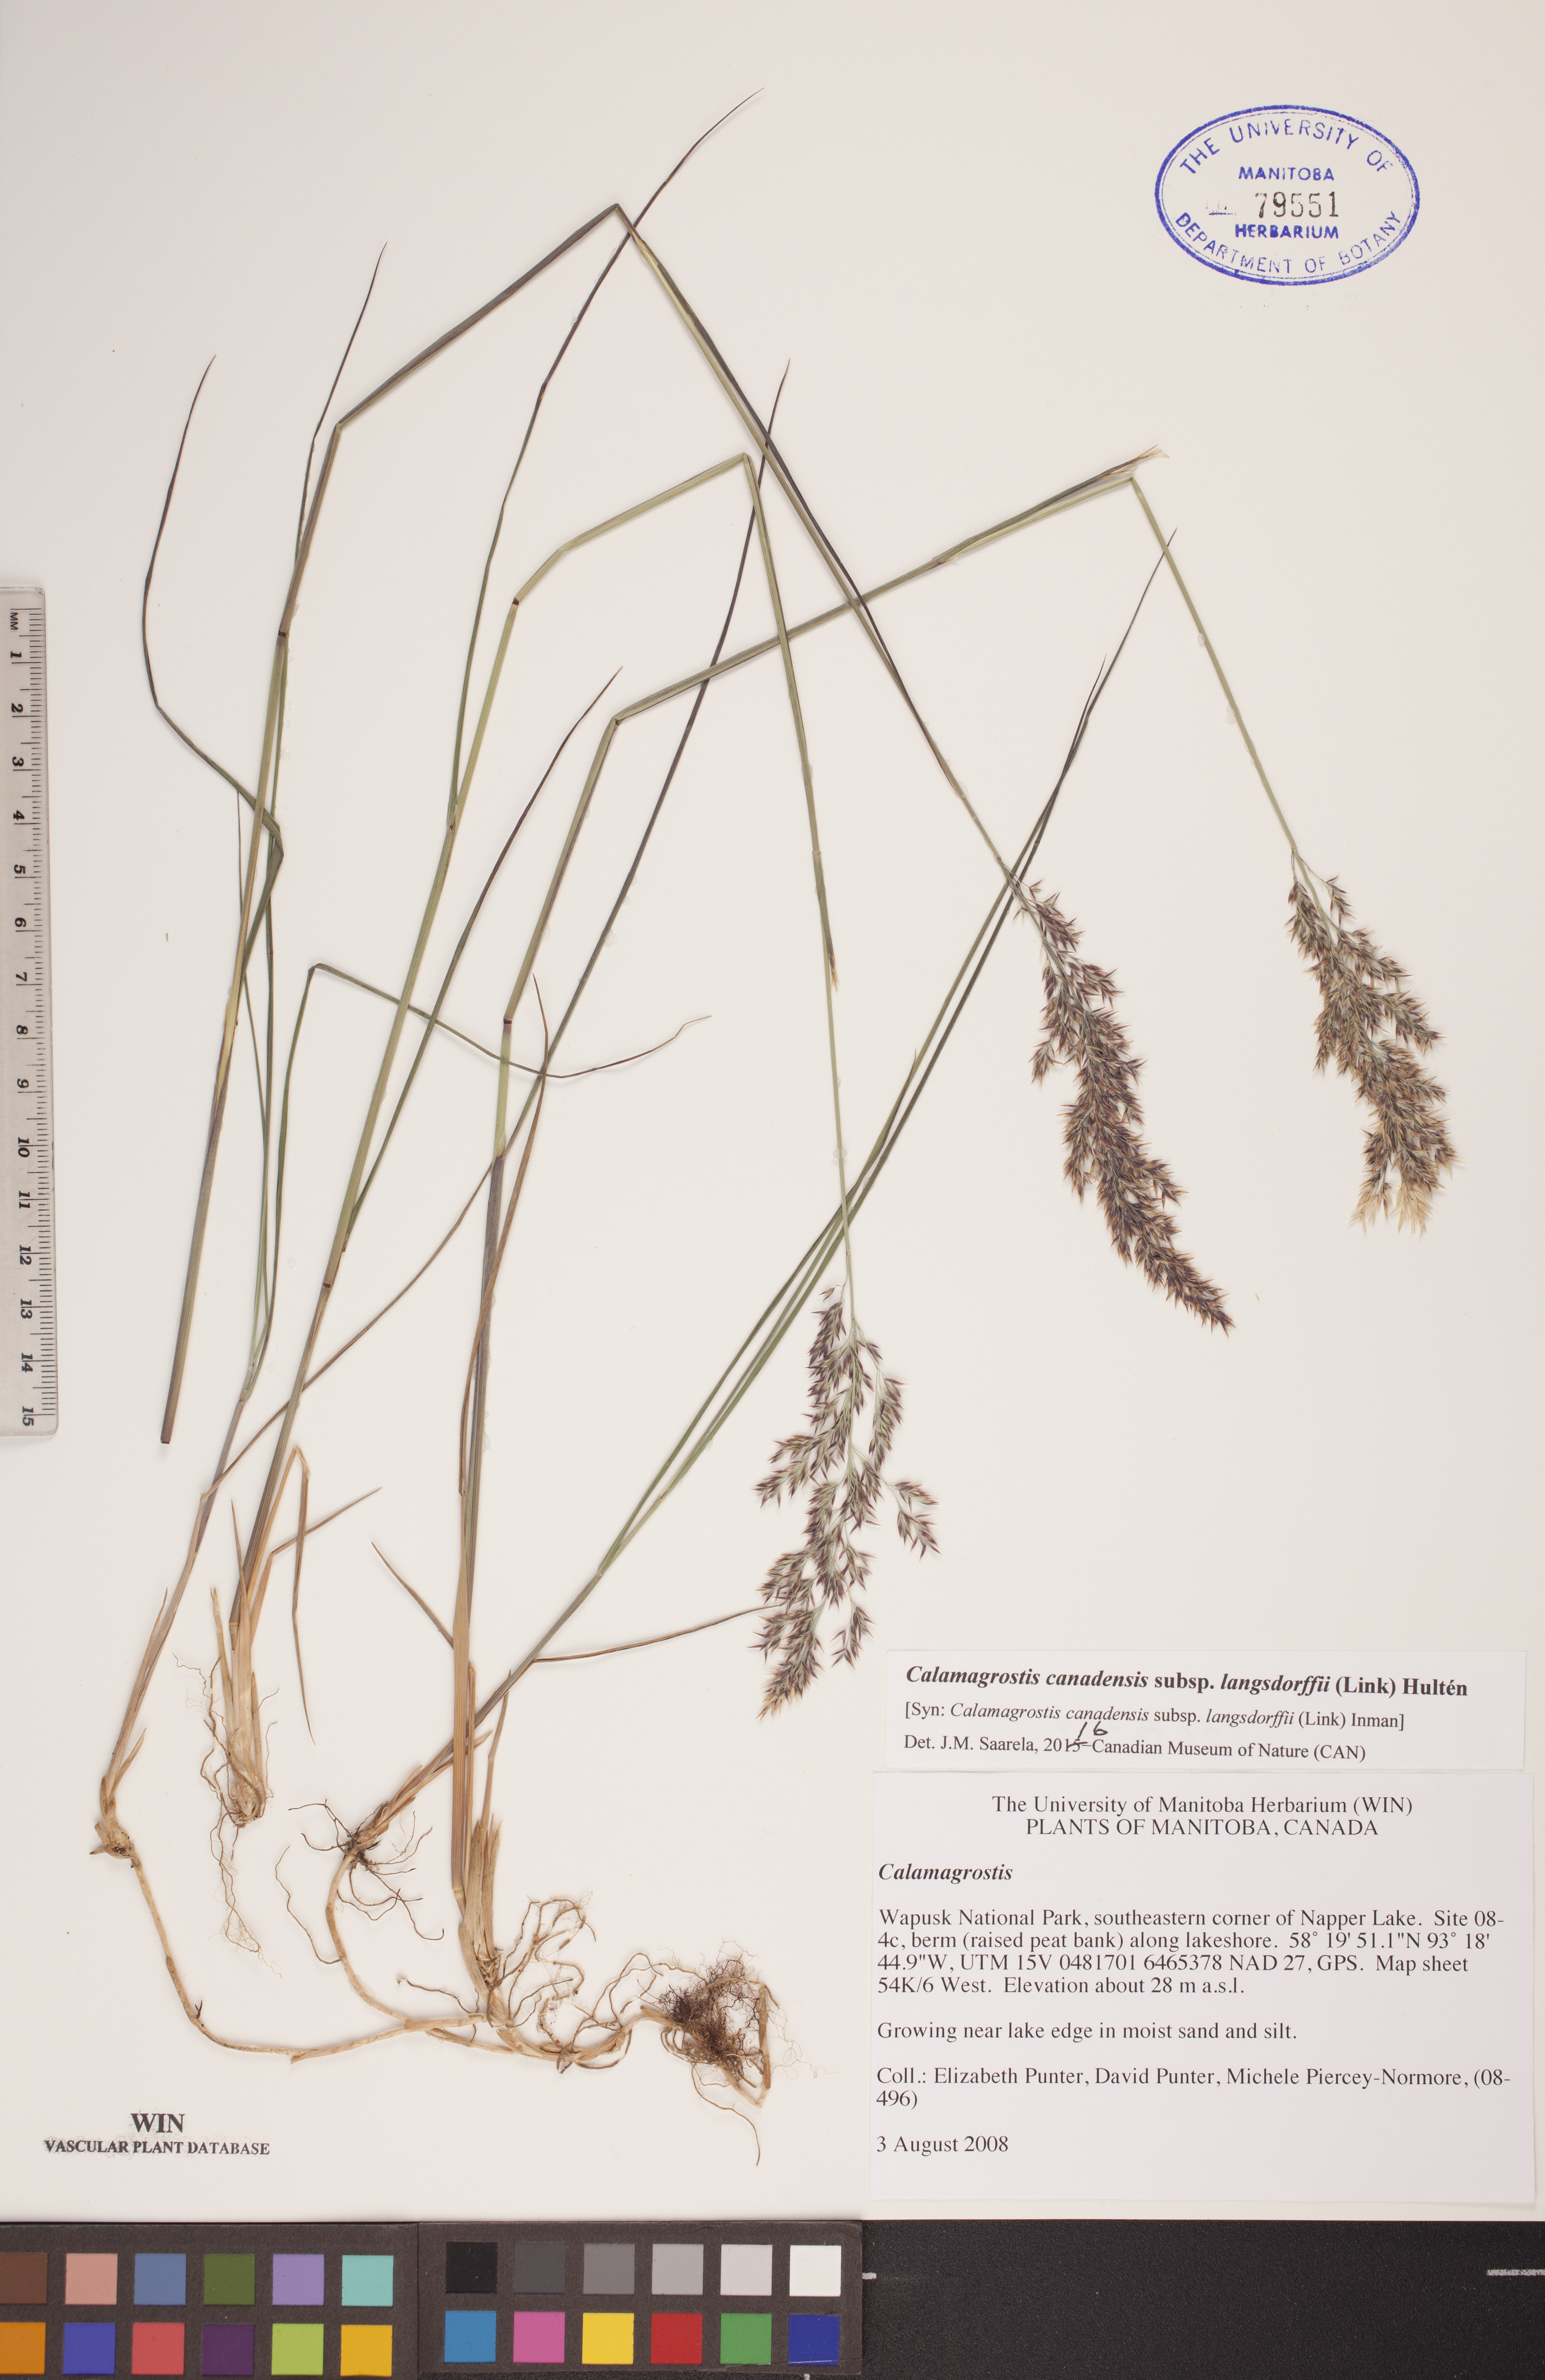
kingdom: Plantae
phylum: Tracheophyta
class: Liliopsida
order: Poales
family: Poaceae
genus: Calamagrostis
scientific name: Calamagrostis purpurea
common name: Scandinavian small-reed
